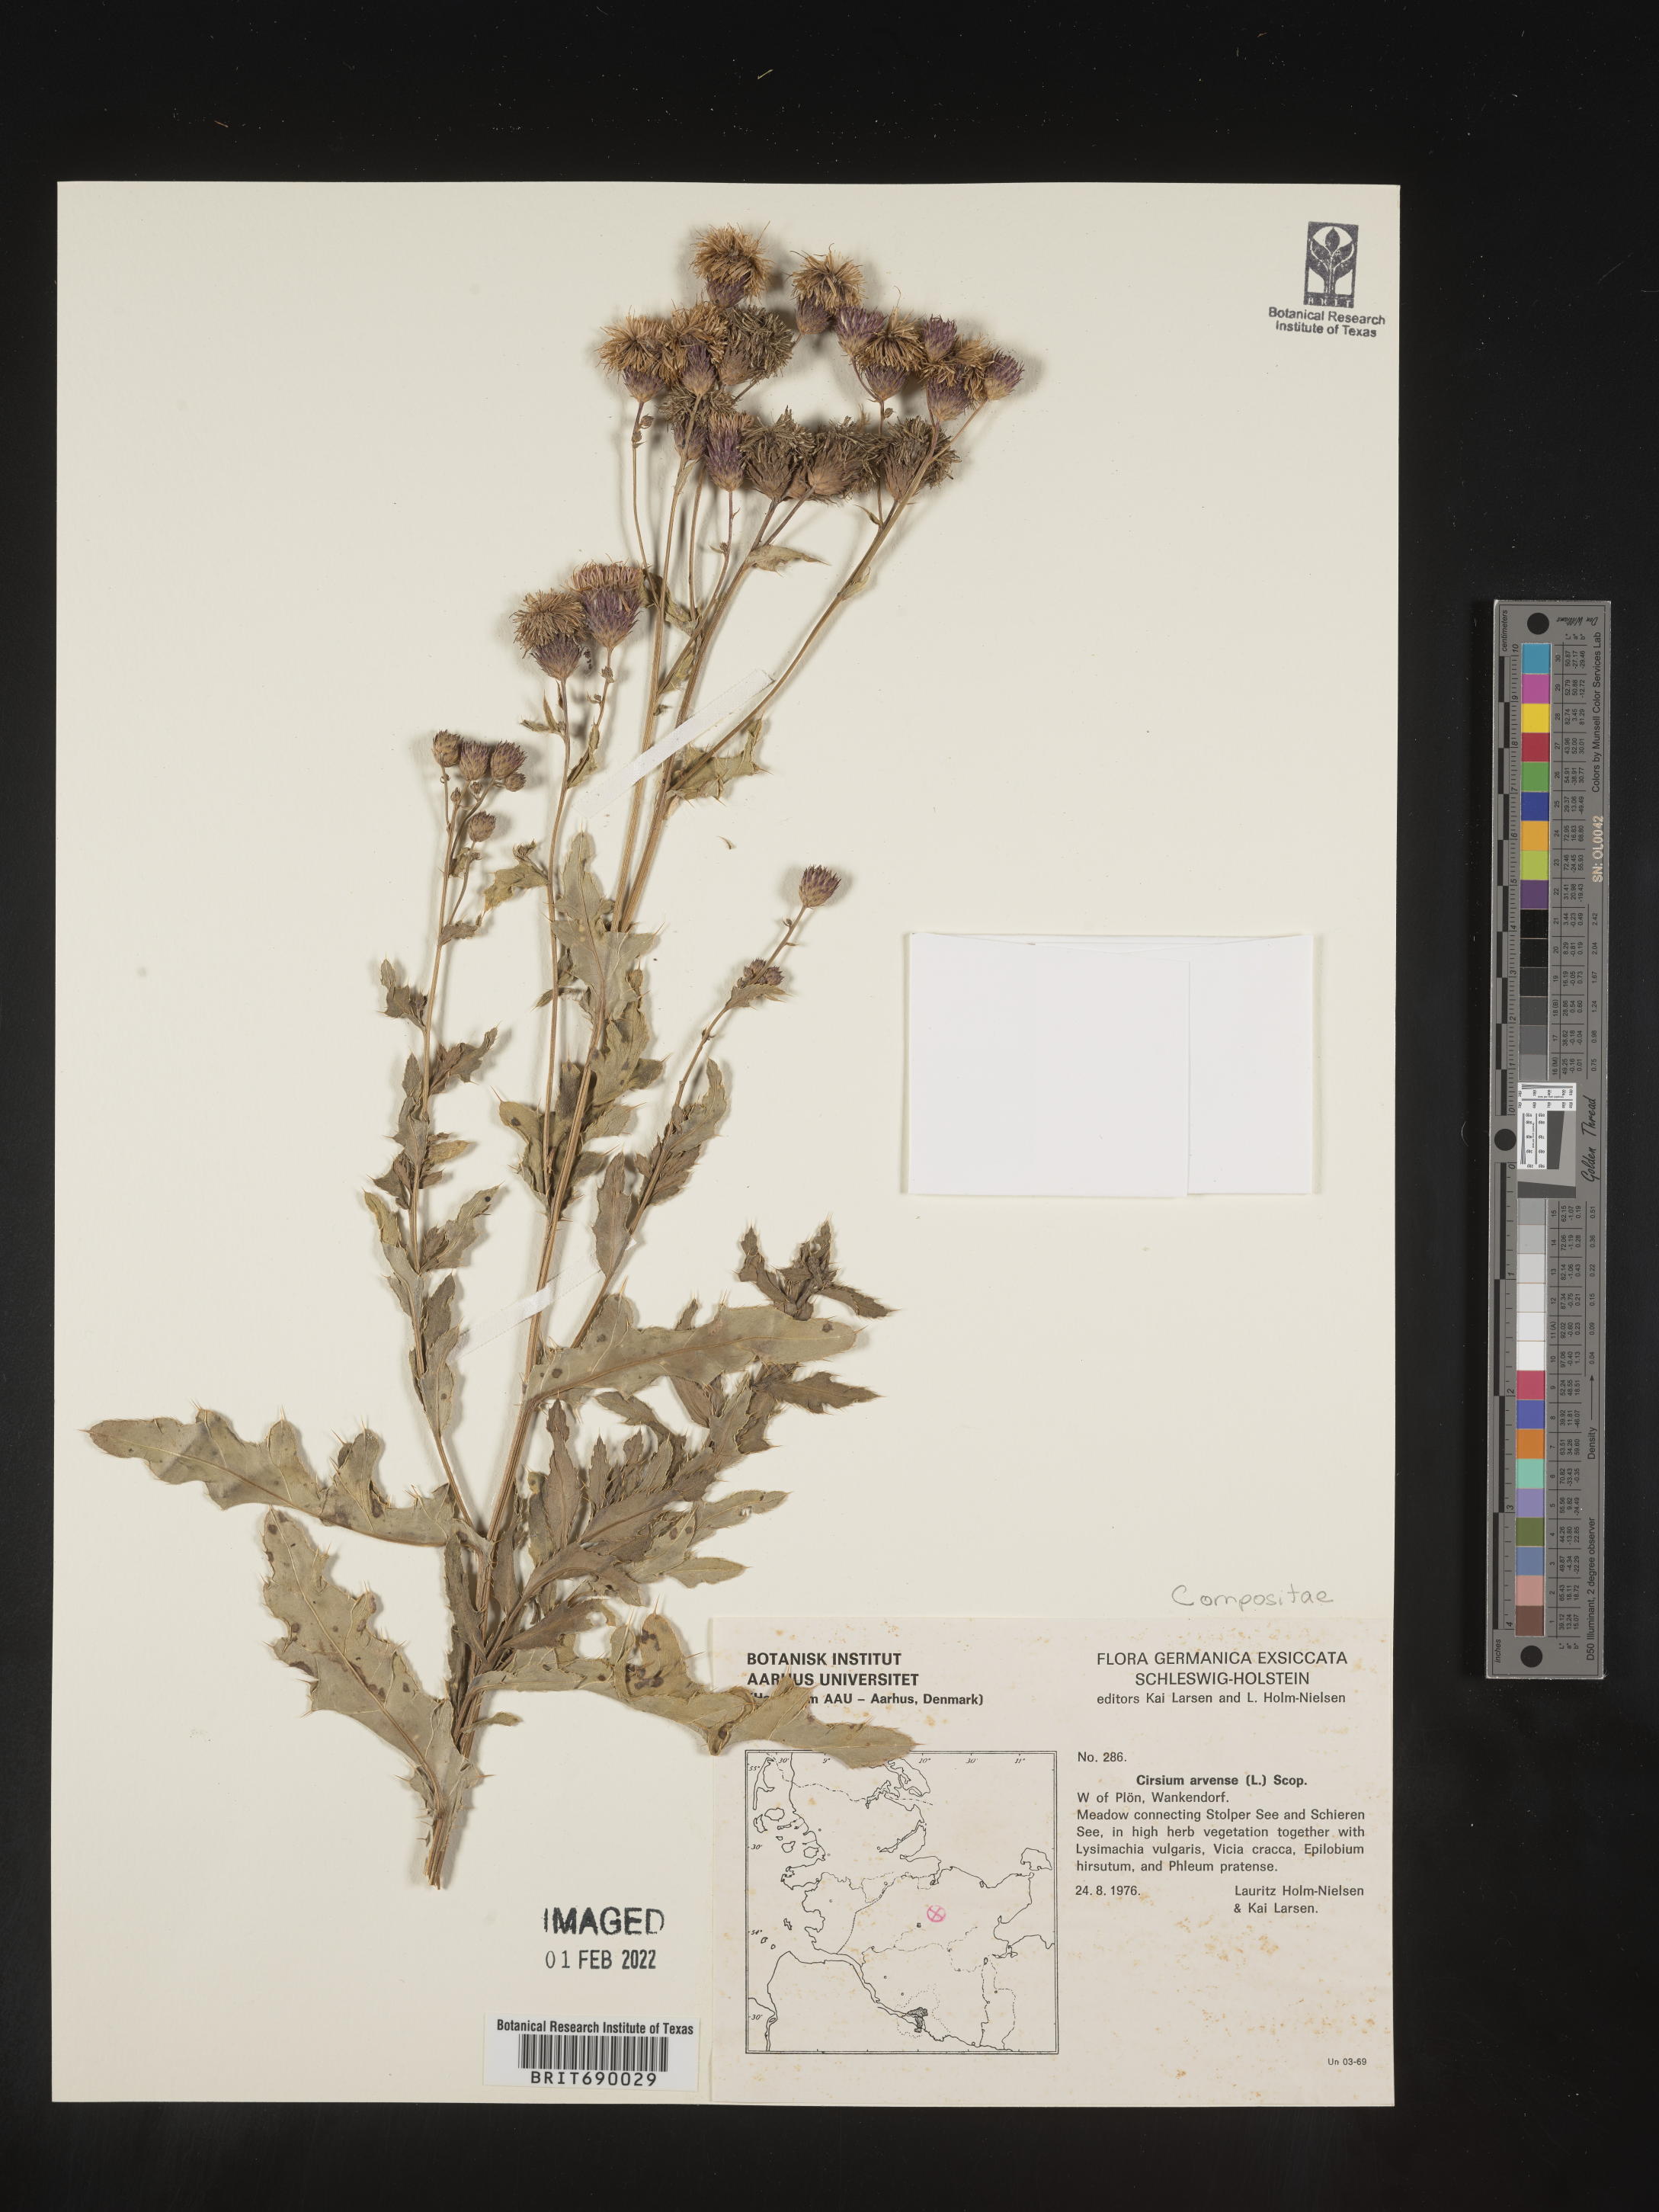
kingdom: Plantae
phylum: Tracheophyta
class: Magnoliopsida
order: Asterales
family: Asteraceae
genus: Cirsium
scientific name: Cirsium
